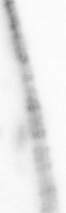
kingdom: Animalia
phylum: Chaetognatha
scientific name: Chaetognatha
